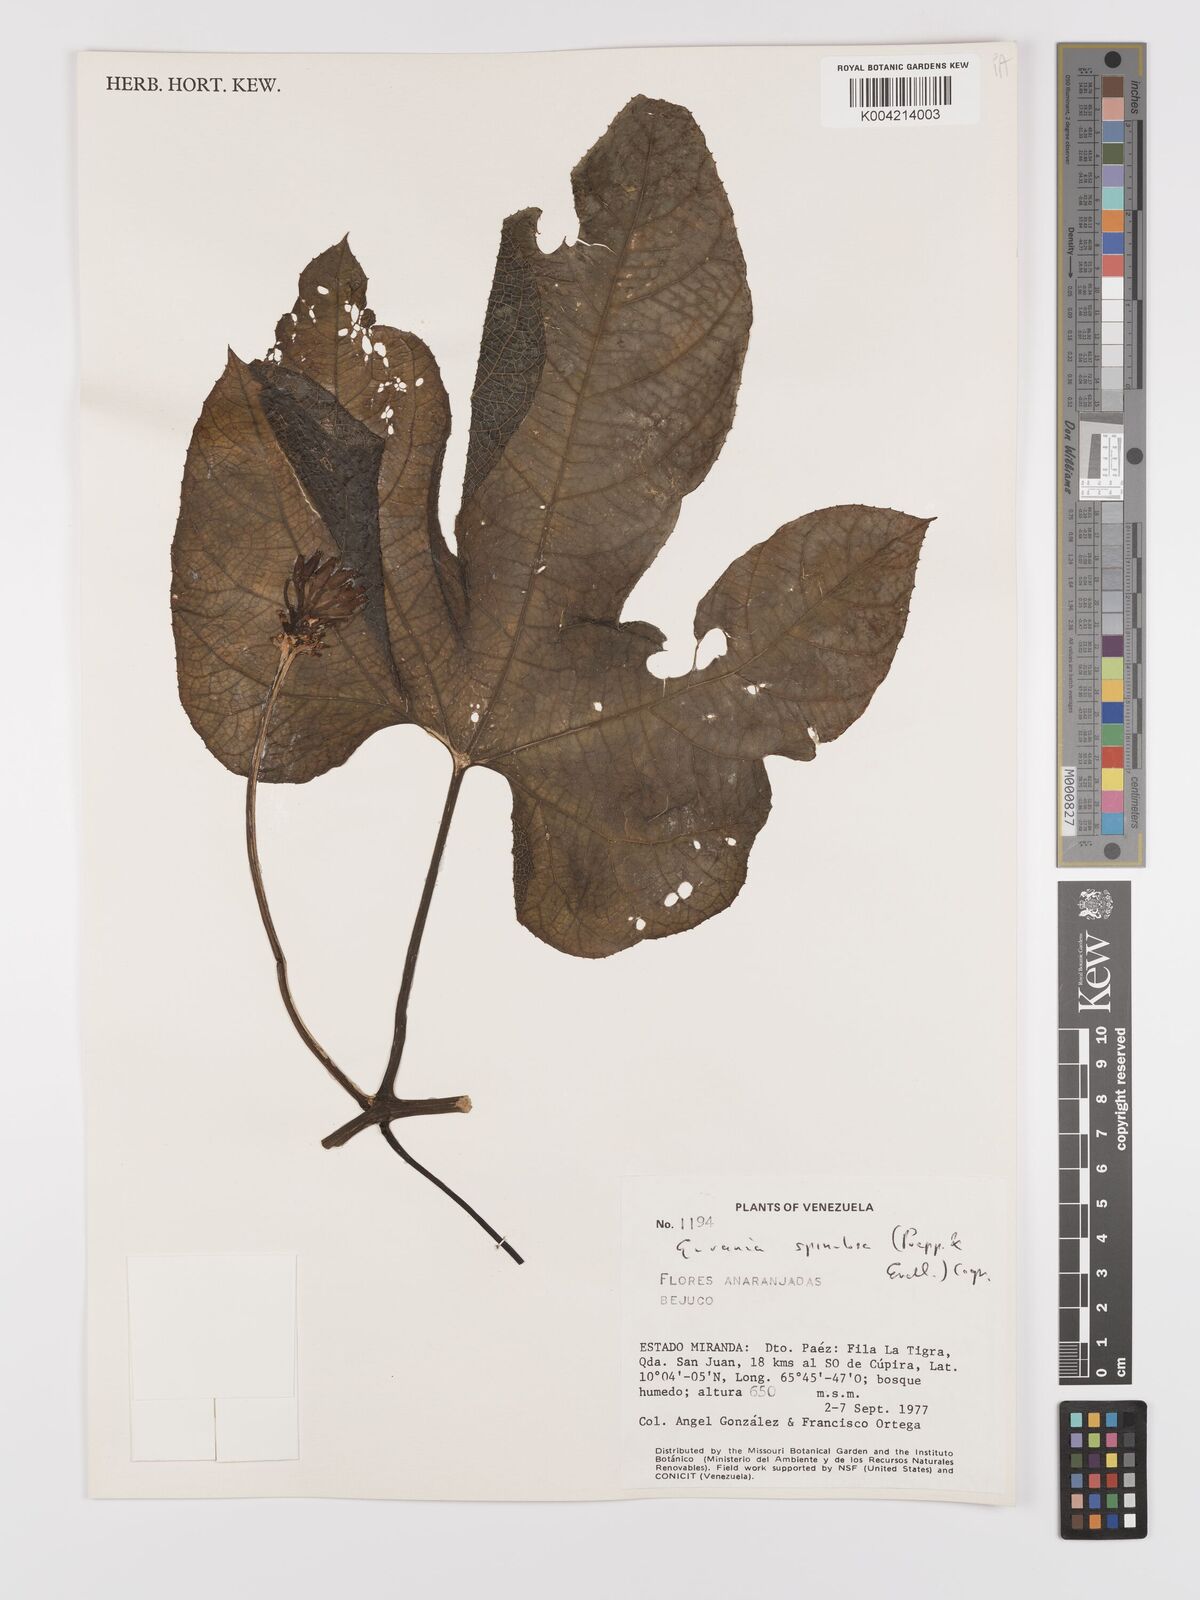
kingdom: Plantae
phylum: Tracheophyta
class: Magnoliopsida
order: Cucurbitales
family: Cucurbitaceae
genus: Gurania
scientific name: Gurania lobata
